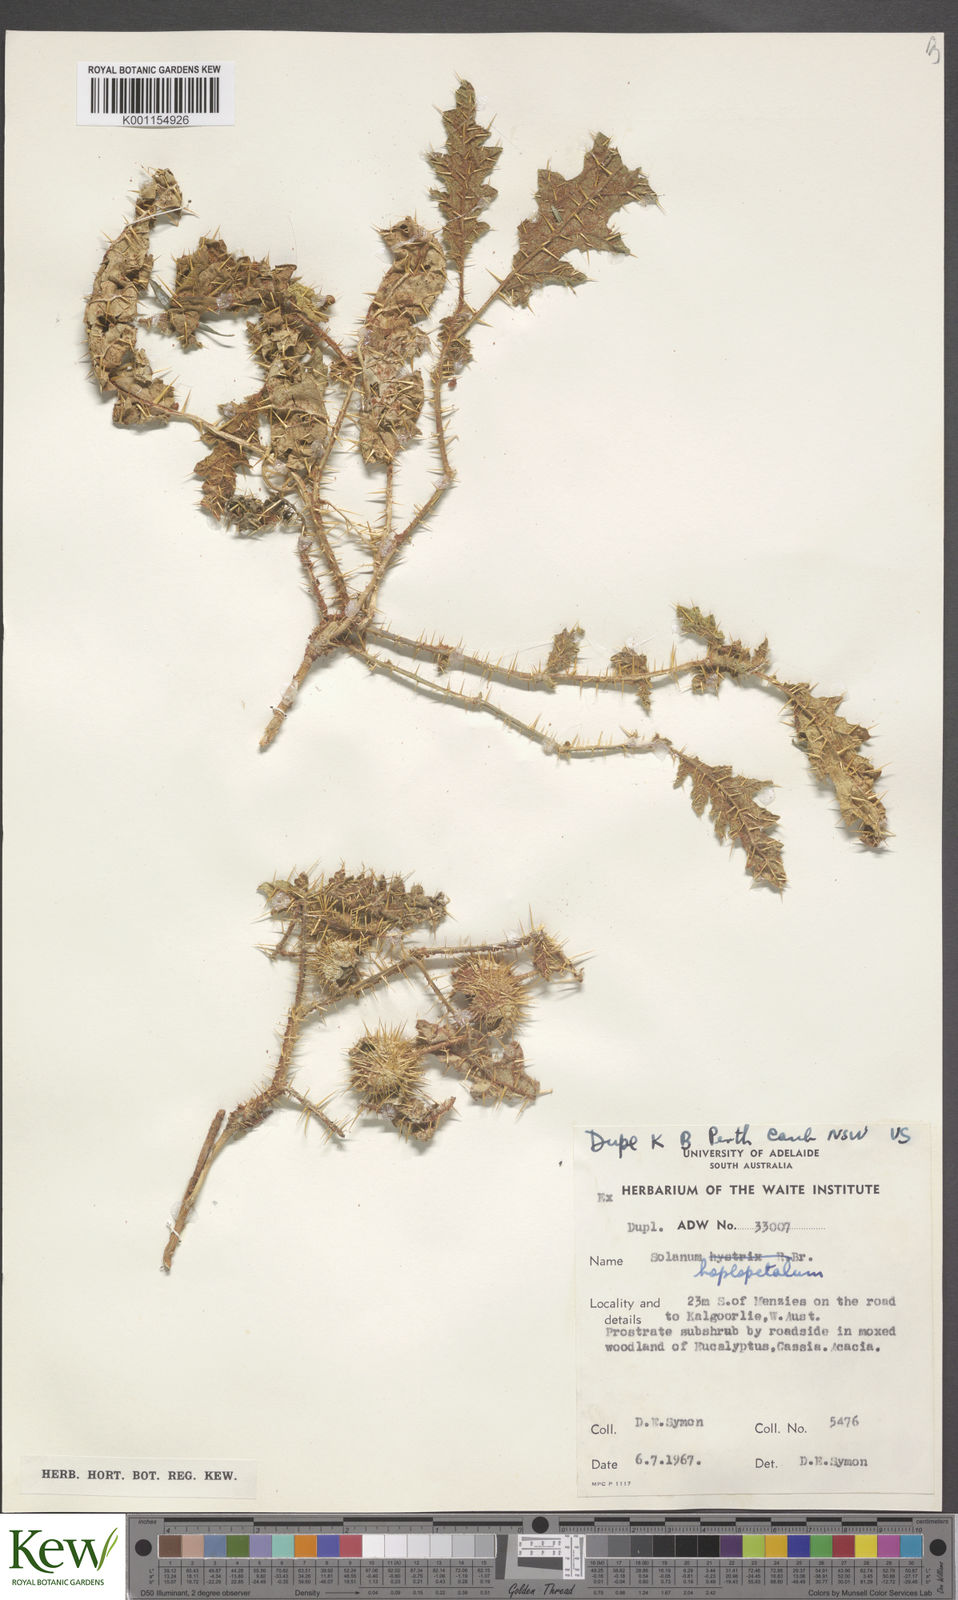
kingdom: Plantae
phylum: Tracheophyta
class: Magnoliopsida
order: Solanales
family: Solanaceae
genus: Solanum
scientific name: Solanum hoplopetalum
